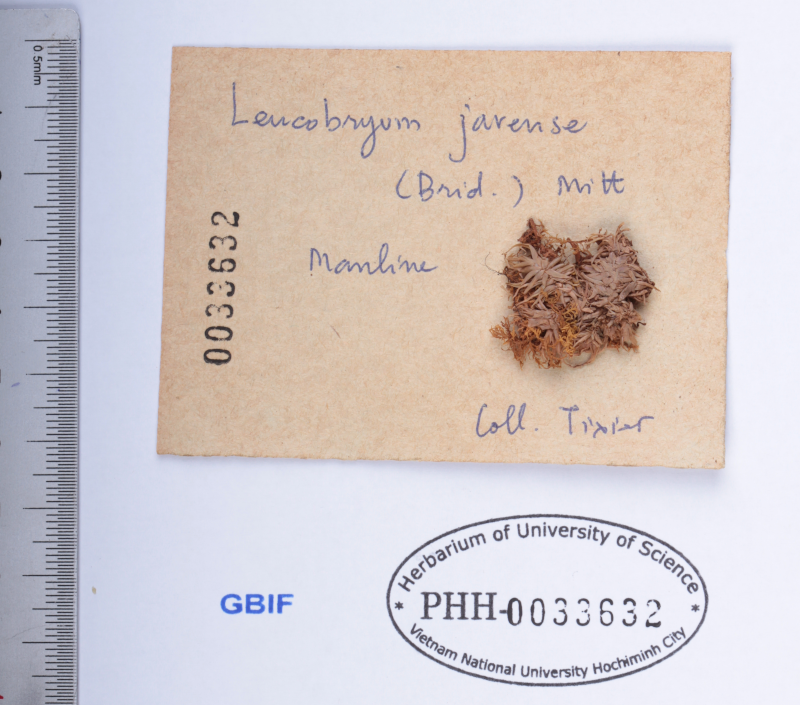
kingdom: Plantae
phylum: Bryophyta
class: Bryopsida
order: Dicranales
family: Leucobryaceae
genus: Leucobryum
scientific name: Leucobryum javense
